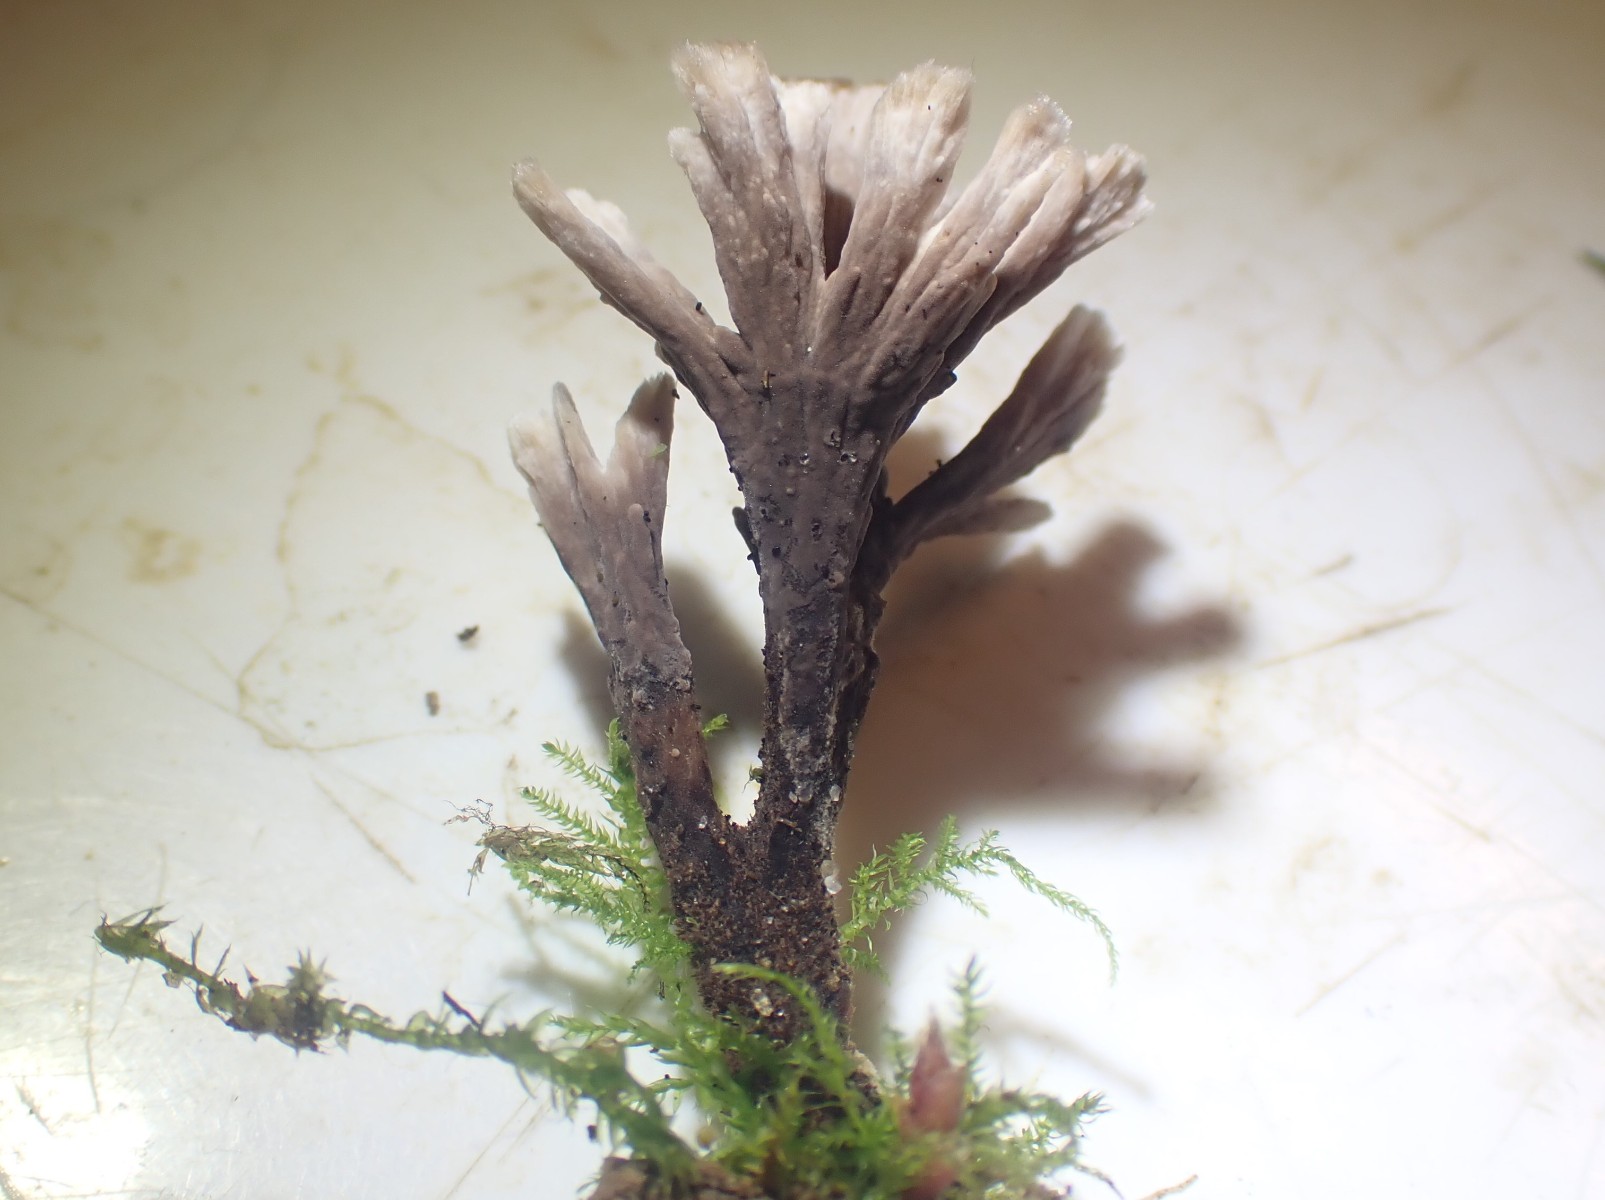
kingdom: Fungi
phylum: Basidiomycota
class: Agaricomycetes
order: Thelephorales
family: Thelephoraceae
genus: Thelephora
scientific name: Thelephora anthocephala
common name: busk-frynsesvamp
